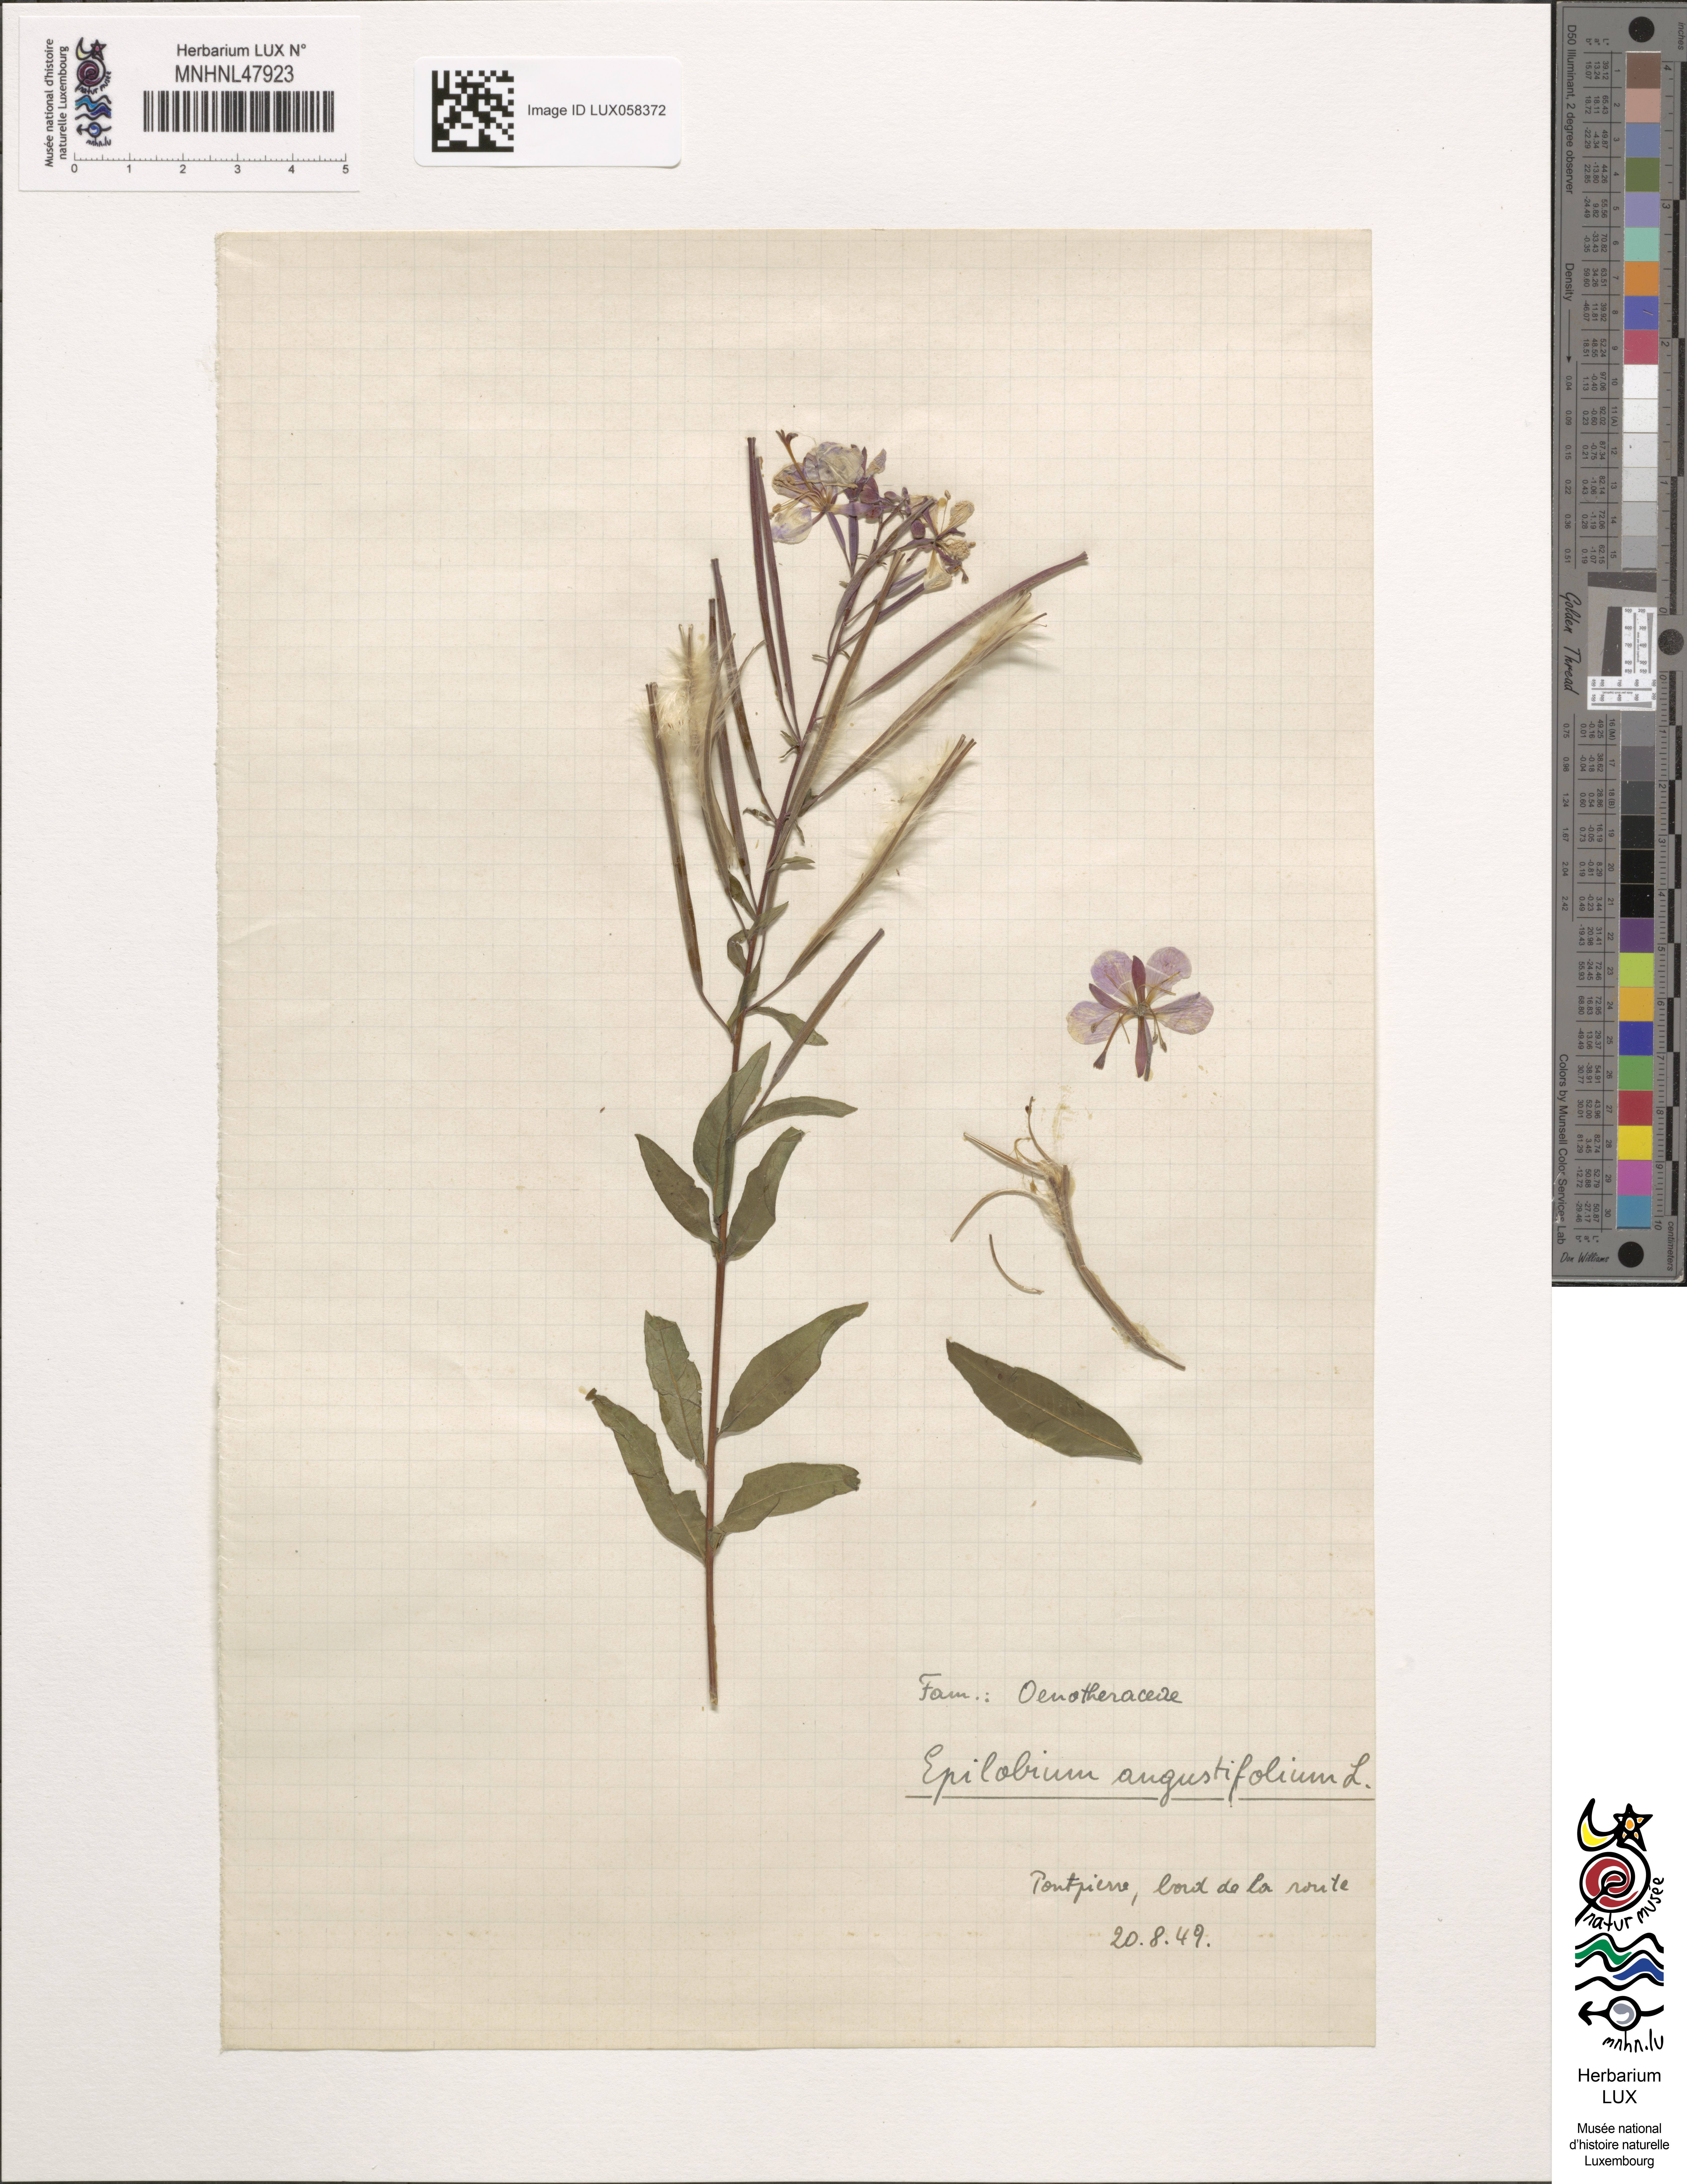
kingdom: Plantae
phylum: Tracheophyta
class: Magnoliopsida
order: Myrtales
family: Onagraceae
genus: Chamaenerion
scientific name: Chamaenerion angustifolium
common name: Fireweed
